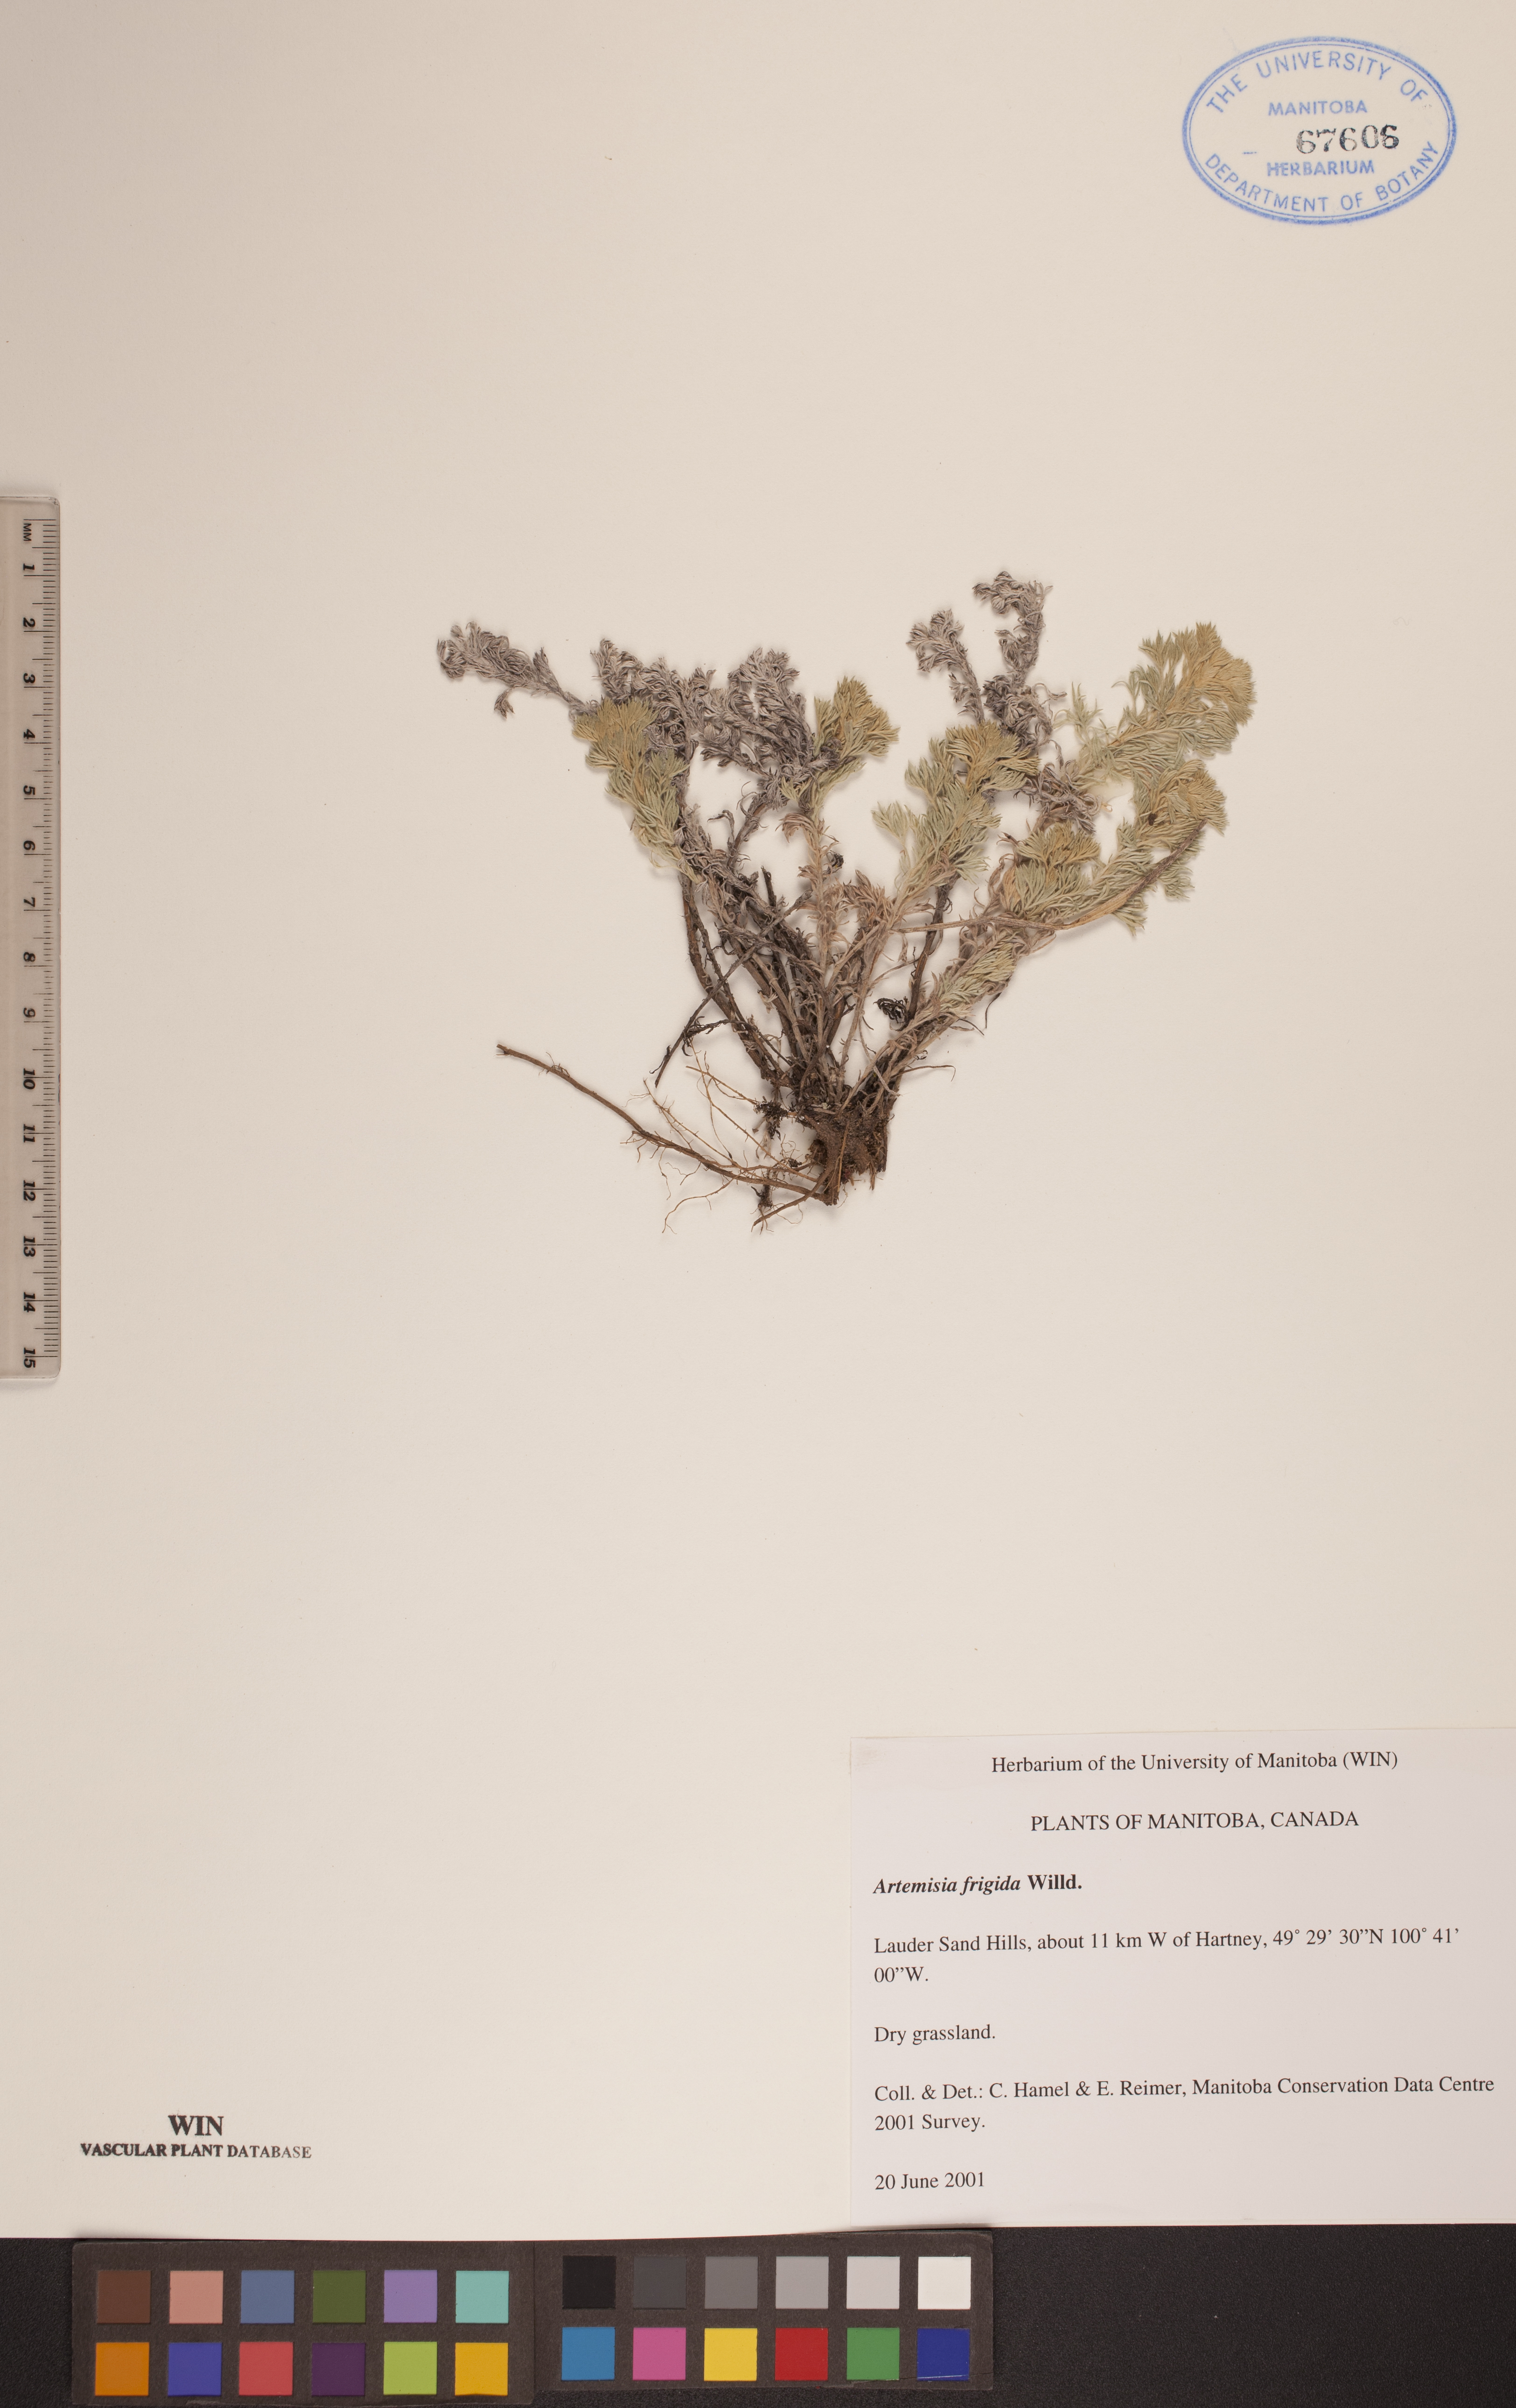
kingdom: Plantae
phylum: Tracheophyta
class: Magnoliopsida
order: Asterales
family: Asteraceae
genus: Artemisia
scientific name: Artemisia frigida
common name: Prairie sagewort
